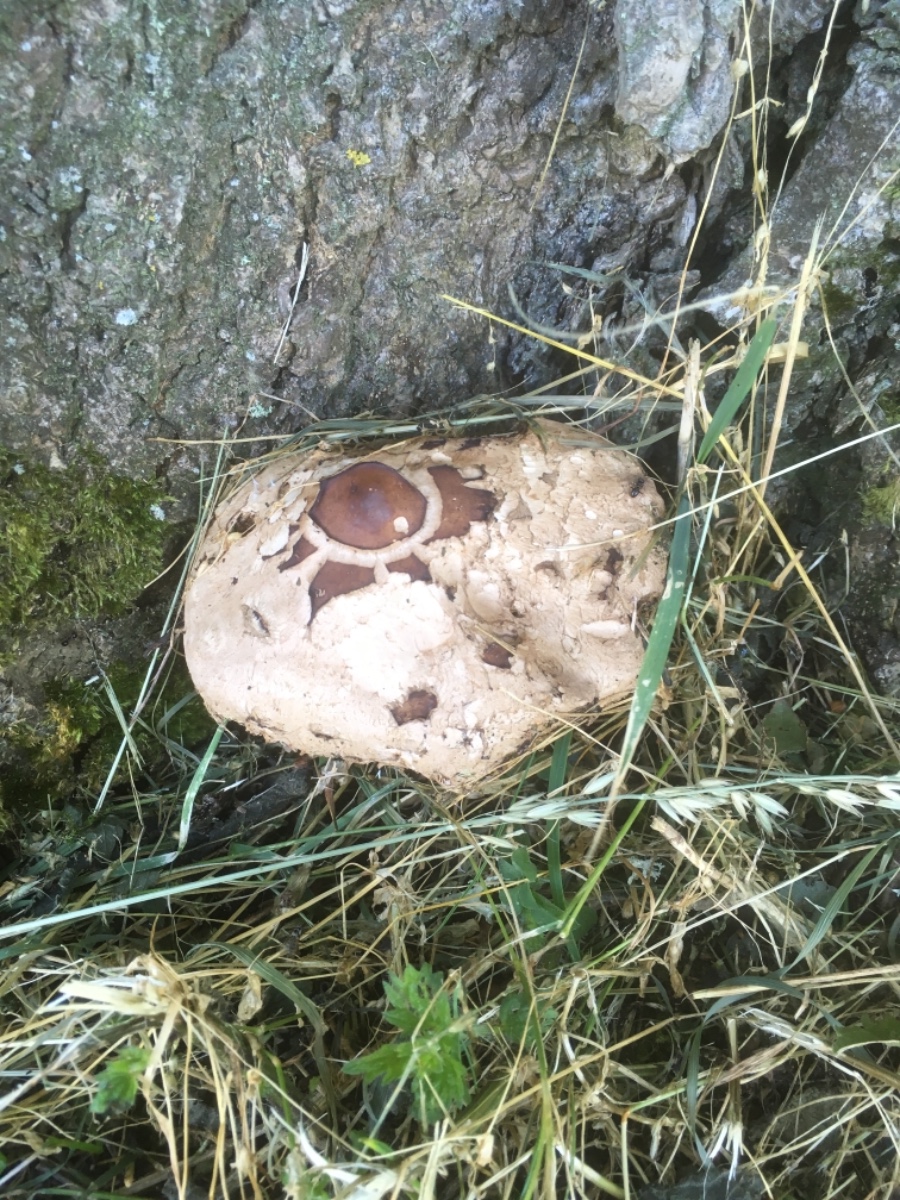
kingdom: Fungi
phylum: Basidiomycota
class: Agaricomycetes
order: Agaricales
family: Agaricaceae
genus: Chlorophyllum
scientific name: Chlorophyllum brunneum
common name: giftig rabarberhat
